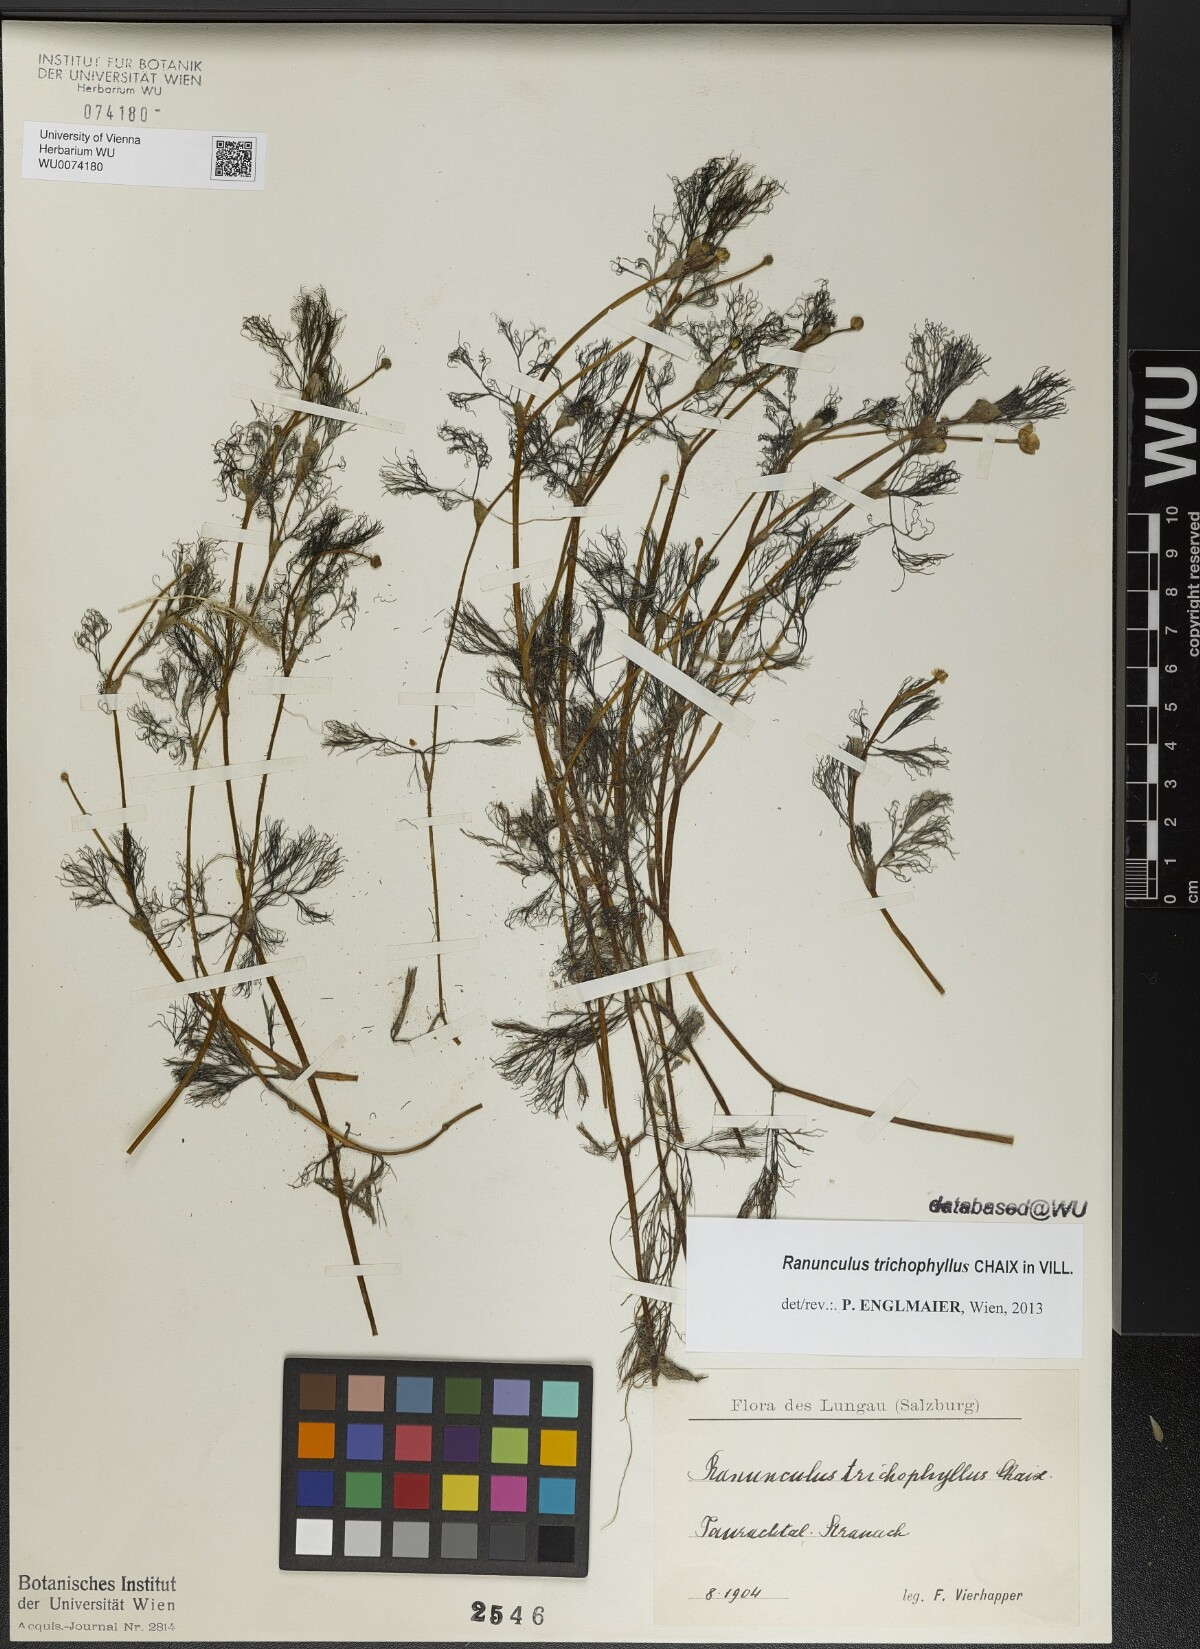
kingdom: Plantae
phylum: Tracheophyta
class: Magnoliopsida
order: Ranunculales
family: Ranunculaceae
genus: Ranunculus
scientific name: Ranunculus trichophyllus
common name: Thread-leaved water-crowfoot
